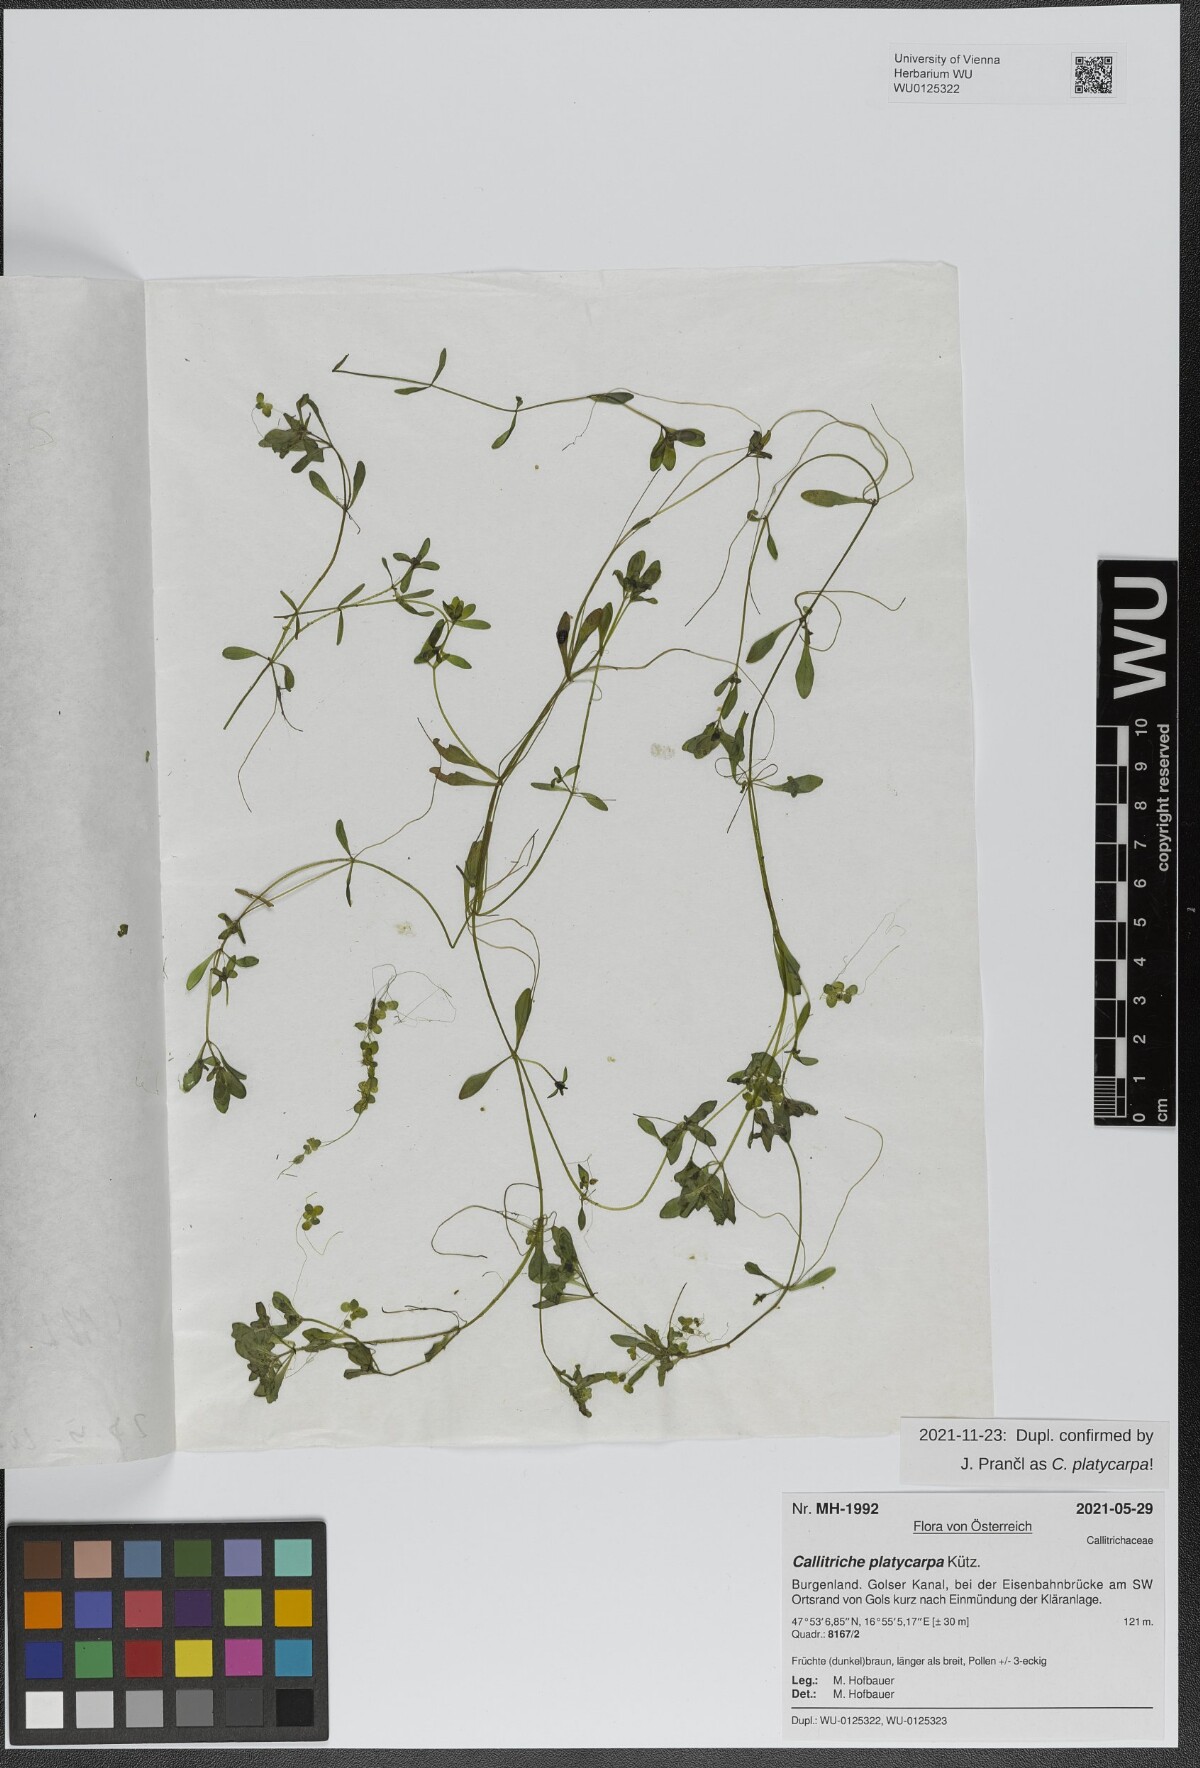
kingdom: Plantae
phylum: Tracheophyta
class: Magnoliopsida
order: Lamiales
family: Plantaginaceae
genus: Callitriche
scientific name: Callitriche platycarpa
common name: Various-leaved water-starwort
